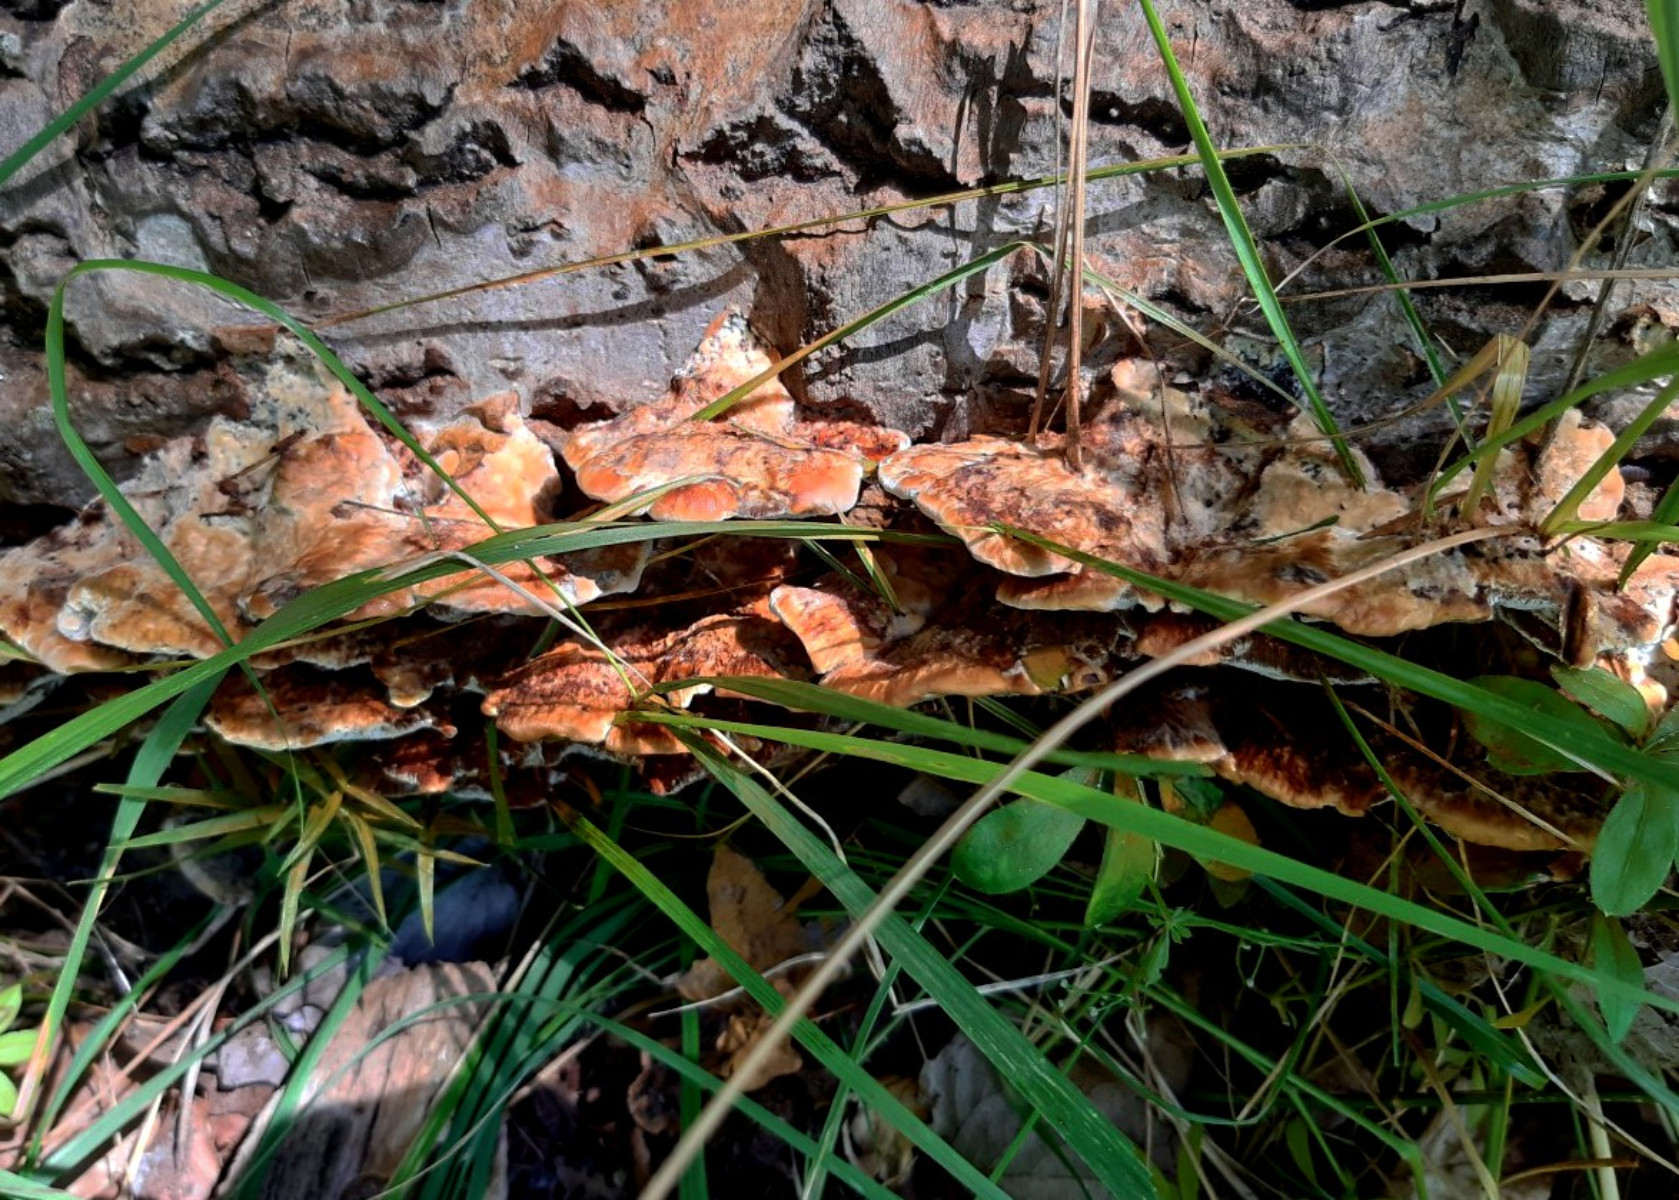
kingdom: Fungi
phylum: Basidiomycota
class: Agaricomycetes
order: Hymenochaetales
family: Hymenochaetaceae
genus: Inocutis
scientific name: Inocutis rheades
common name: ræve-spejlporesvamp
